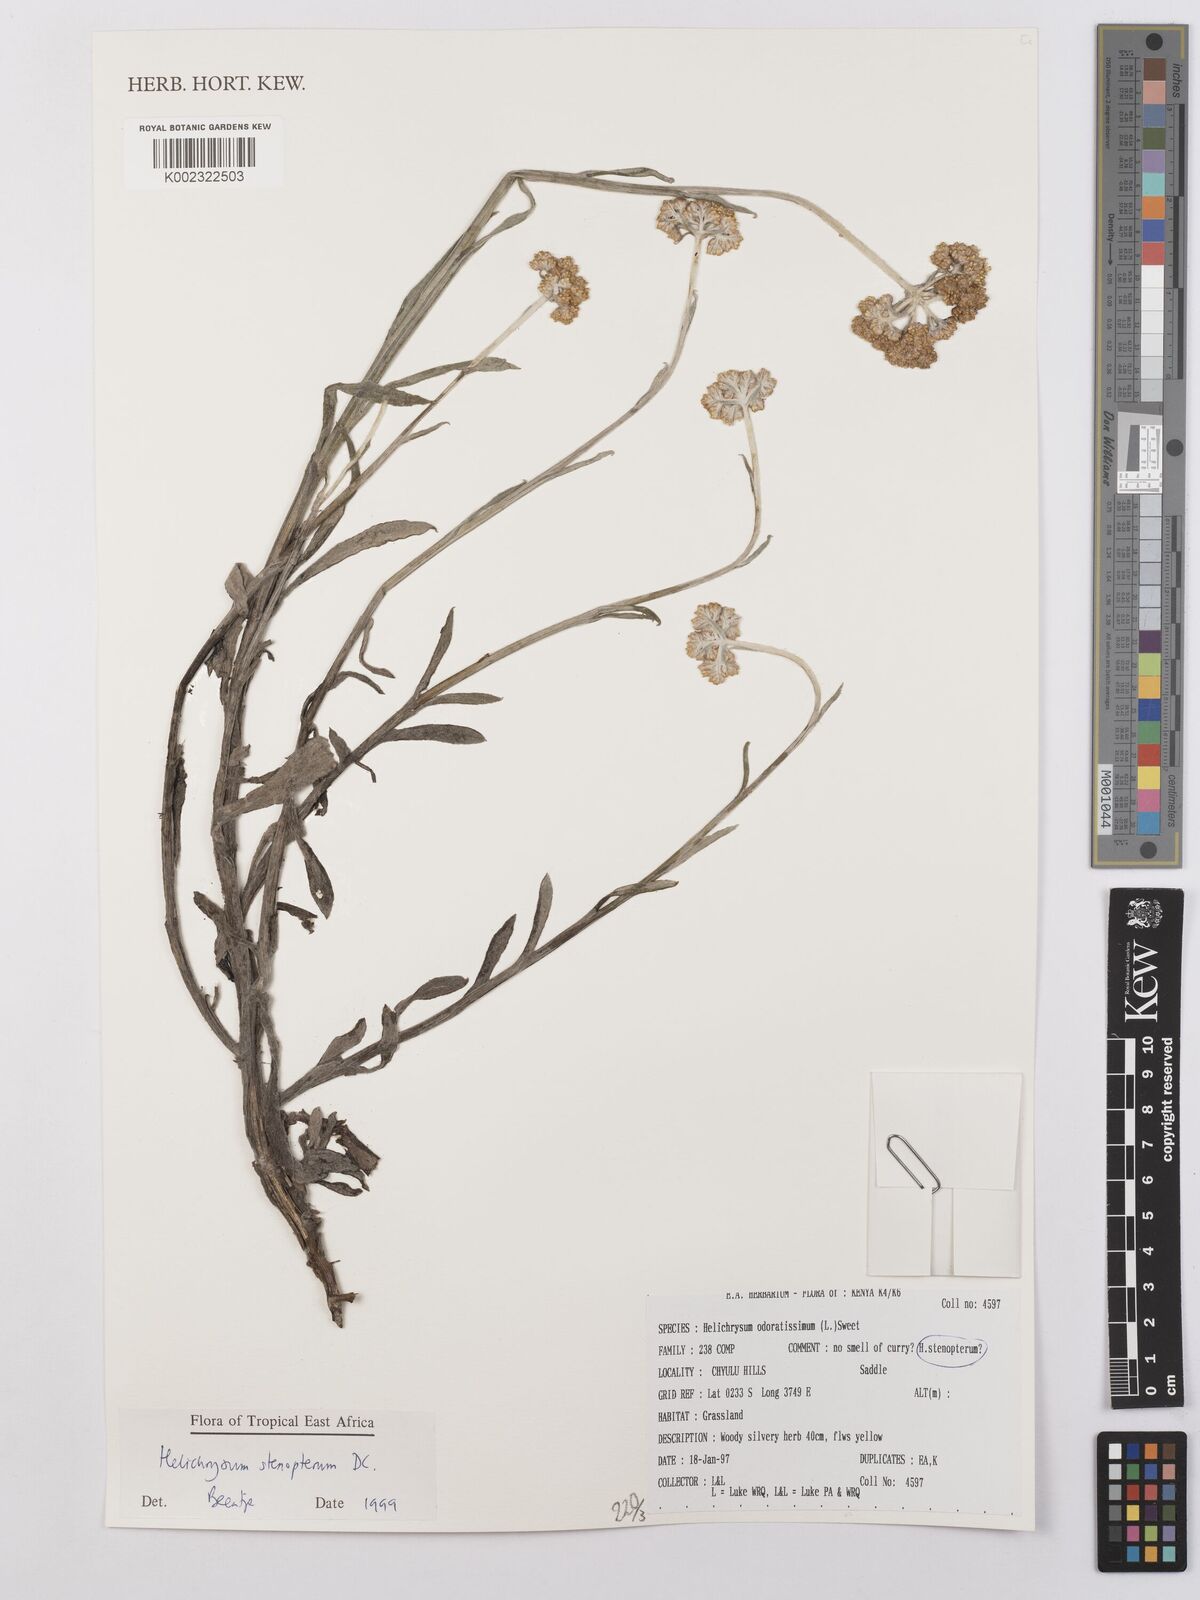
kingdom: Plantae
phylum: Tracheophyta
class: Magnoliopsida
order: Asterales
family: Asteraceae
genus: Helichrysum
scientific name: Helichrysum stenopterum
